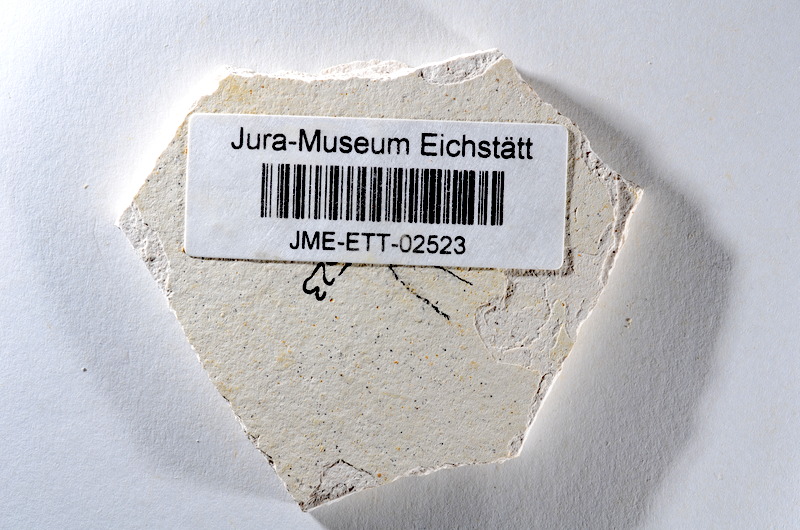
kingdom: Animalia
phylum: Chordata
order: Salmoniformes
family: Orthogonikleithridae
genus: Orthogonikleithrus
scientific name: Orthogonikleithrus hoelli
